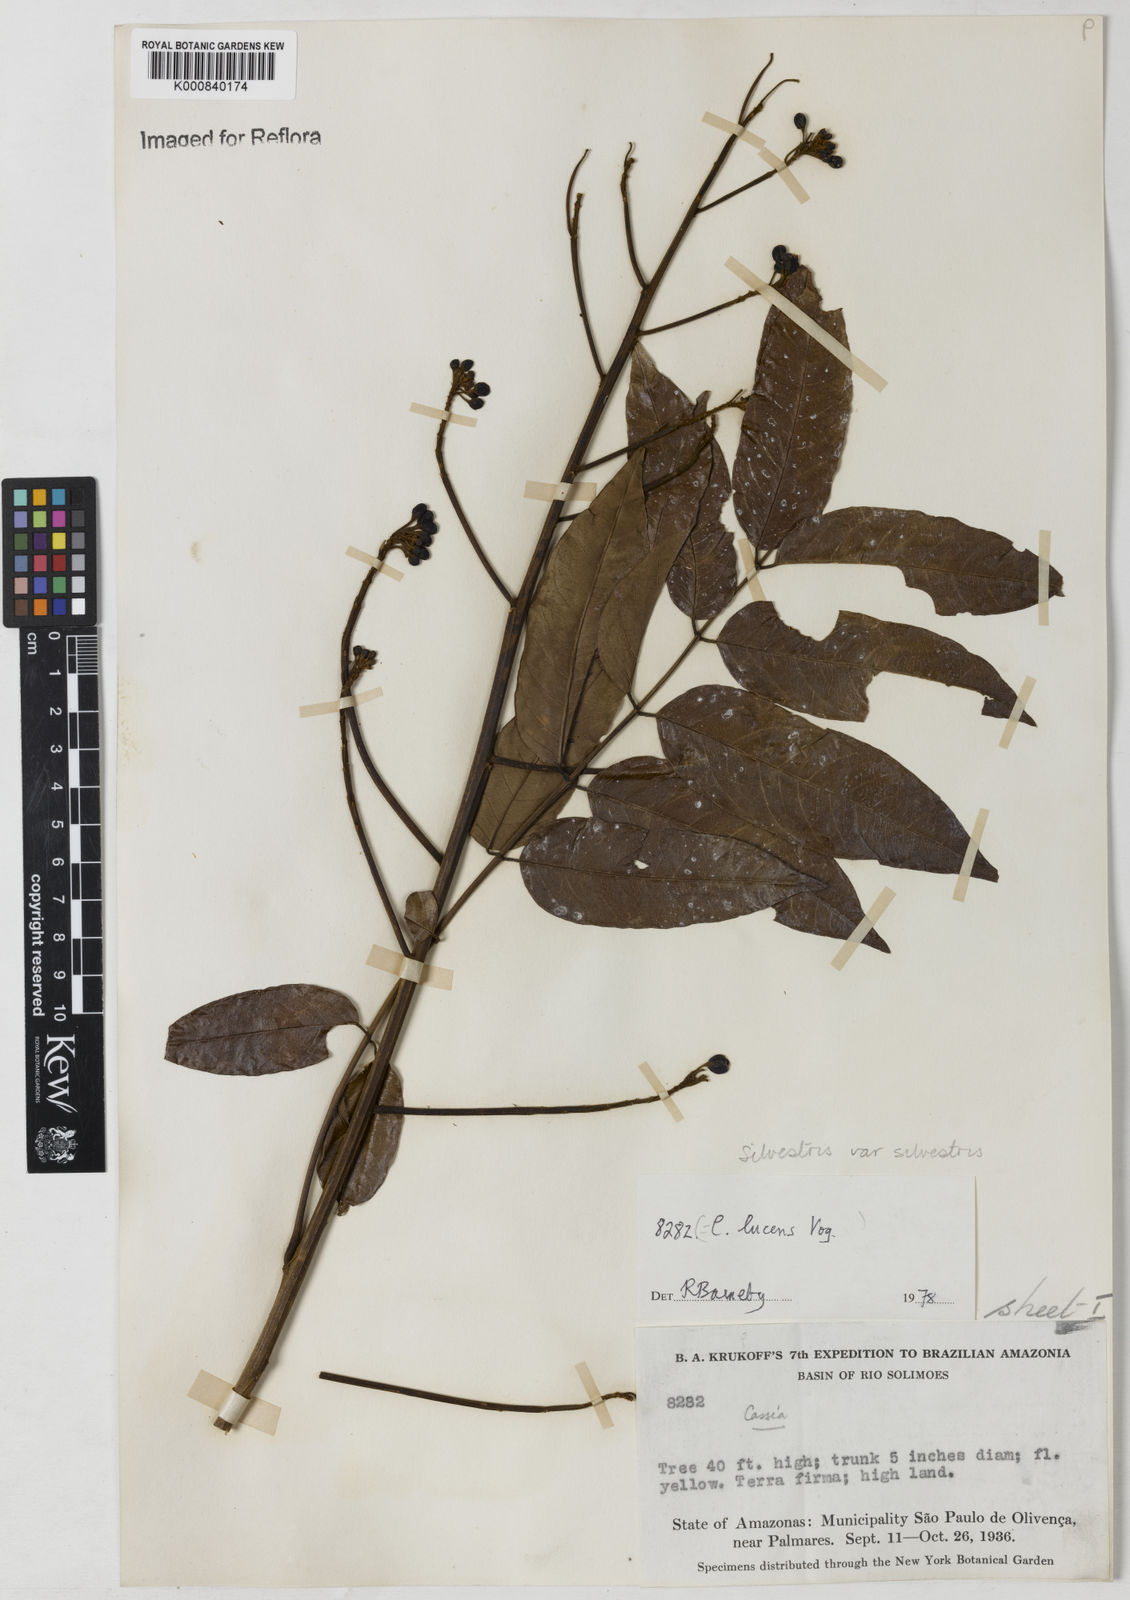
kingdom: Plantae
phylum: Tracheophyta
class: Magnoliopsida
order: Fabales
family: Fabaceae
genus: Senna
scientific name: Senna silvestris
